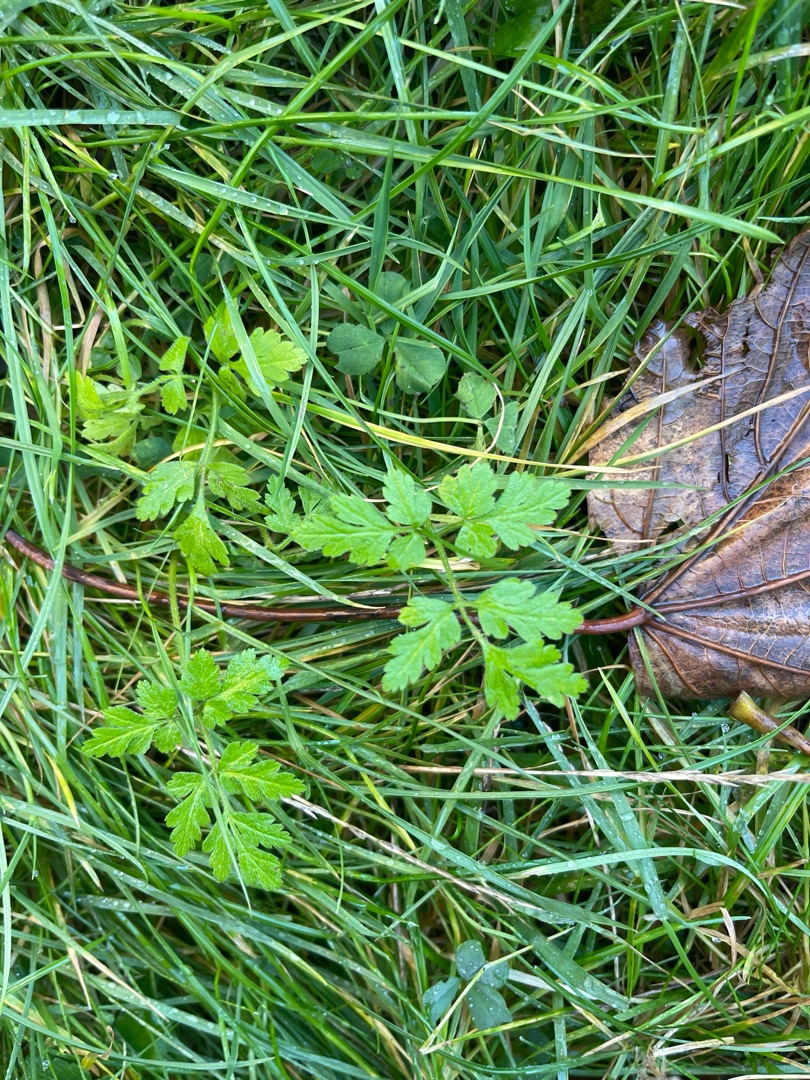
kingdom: Plantae
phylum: Tracheophyta
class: Magnoliopsida
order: Apiales
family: Apiaceae
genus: Chaerophyllum
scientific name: Chaerophyllum temulum
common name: Almindelig hulsvøb
